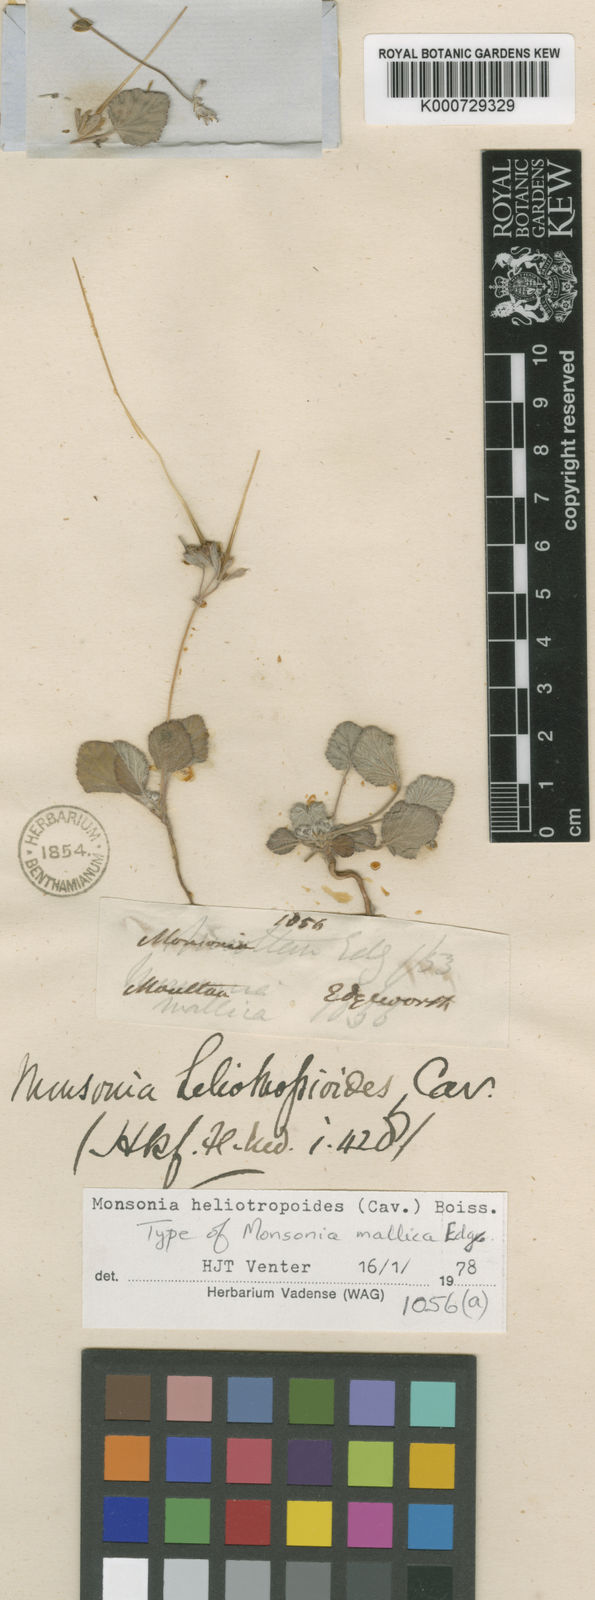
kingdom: Plantae
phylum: Tracheophyta
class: Magnoliopsida
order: Geraniales
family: Geraniaceae
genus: Monsonia
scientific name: Monsonia
